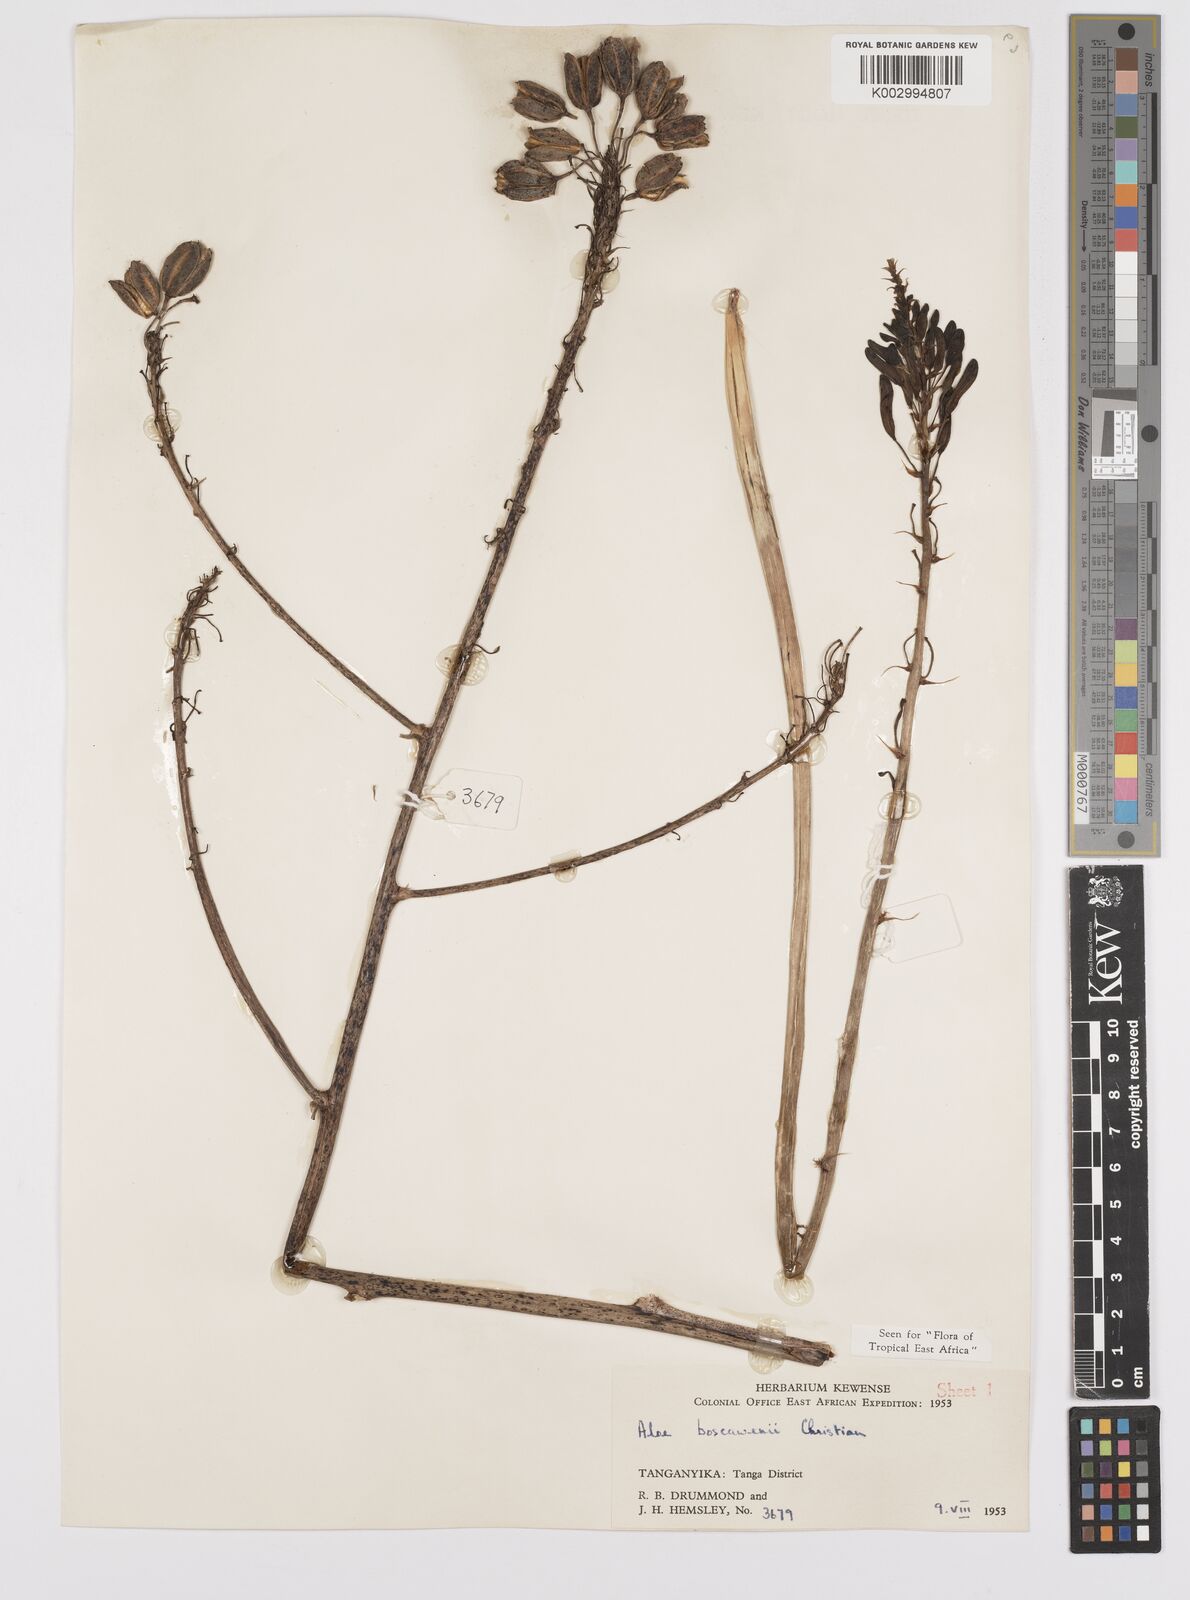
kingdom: Plantae
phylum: Tracheophyta
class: Liliopsida
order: Asparagales
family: Asphodelaceae
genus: Aloe
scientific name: Aloe boscawenii
